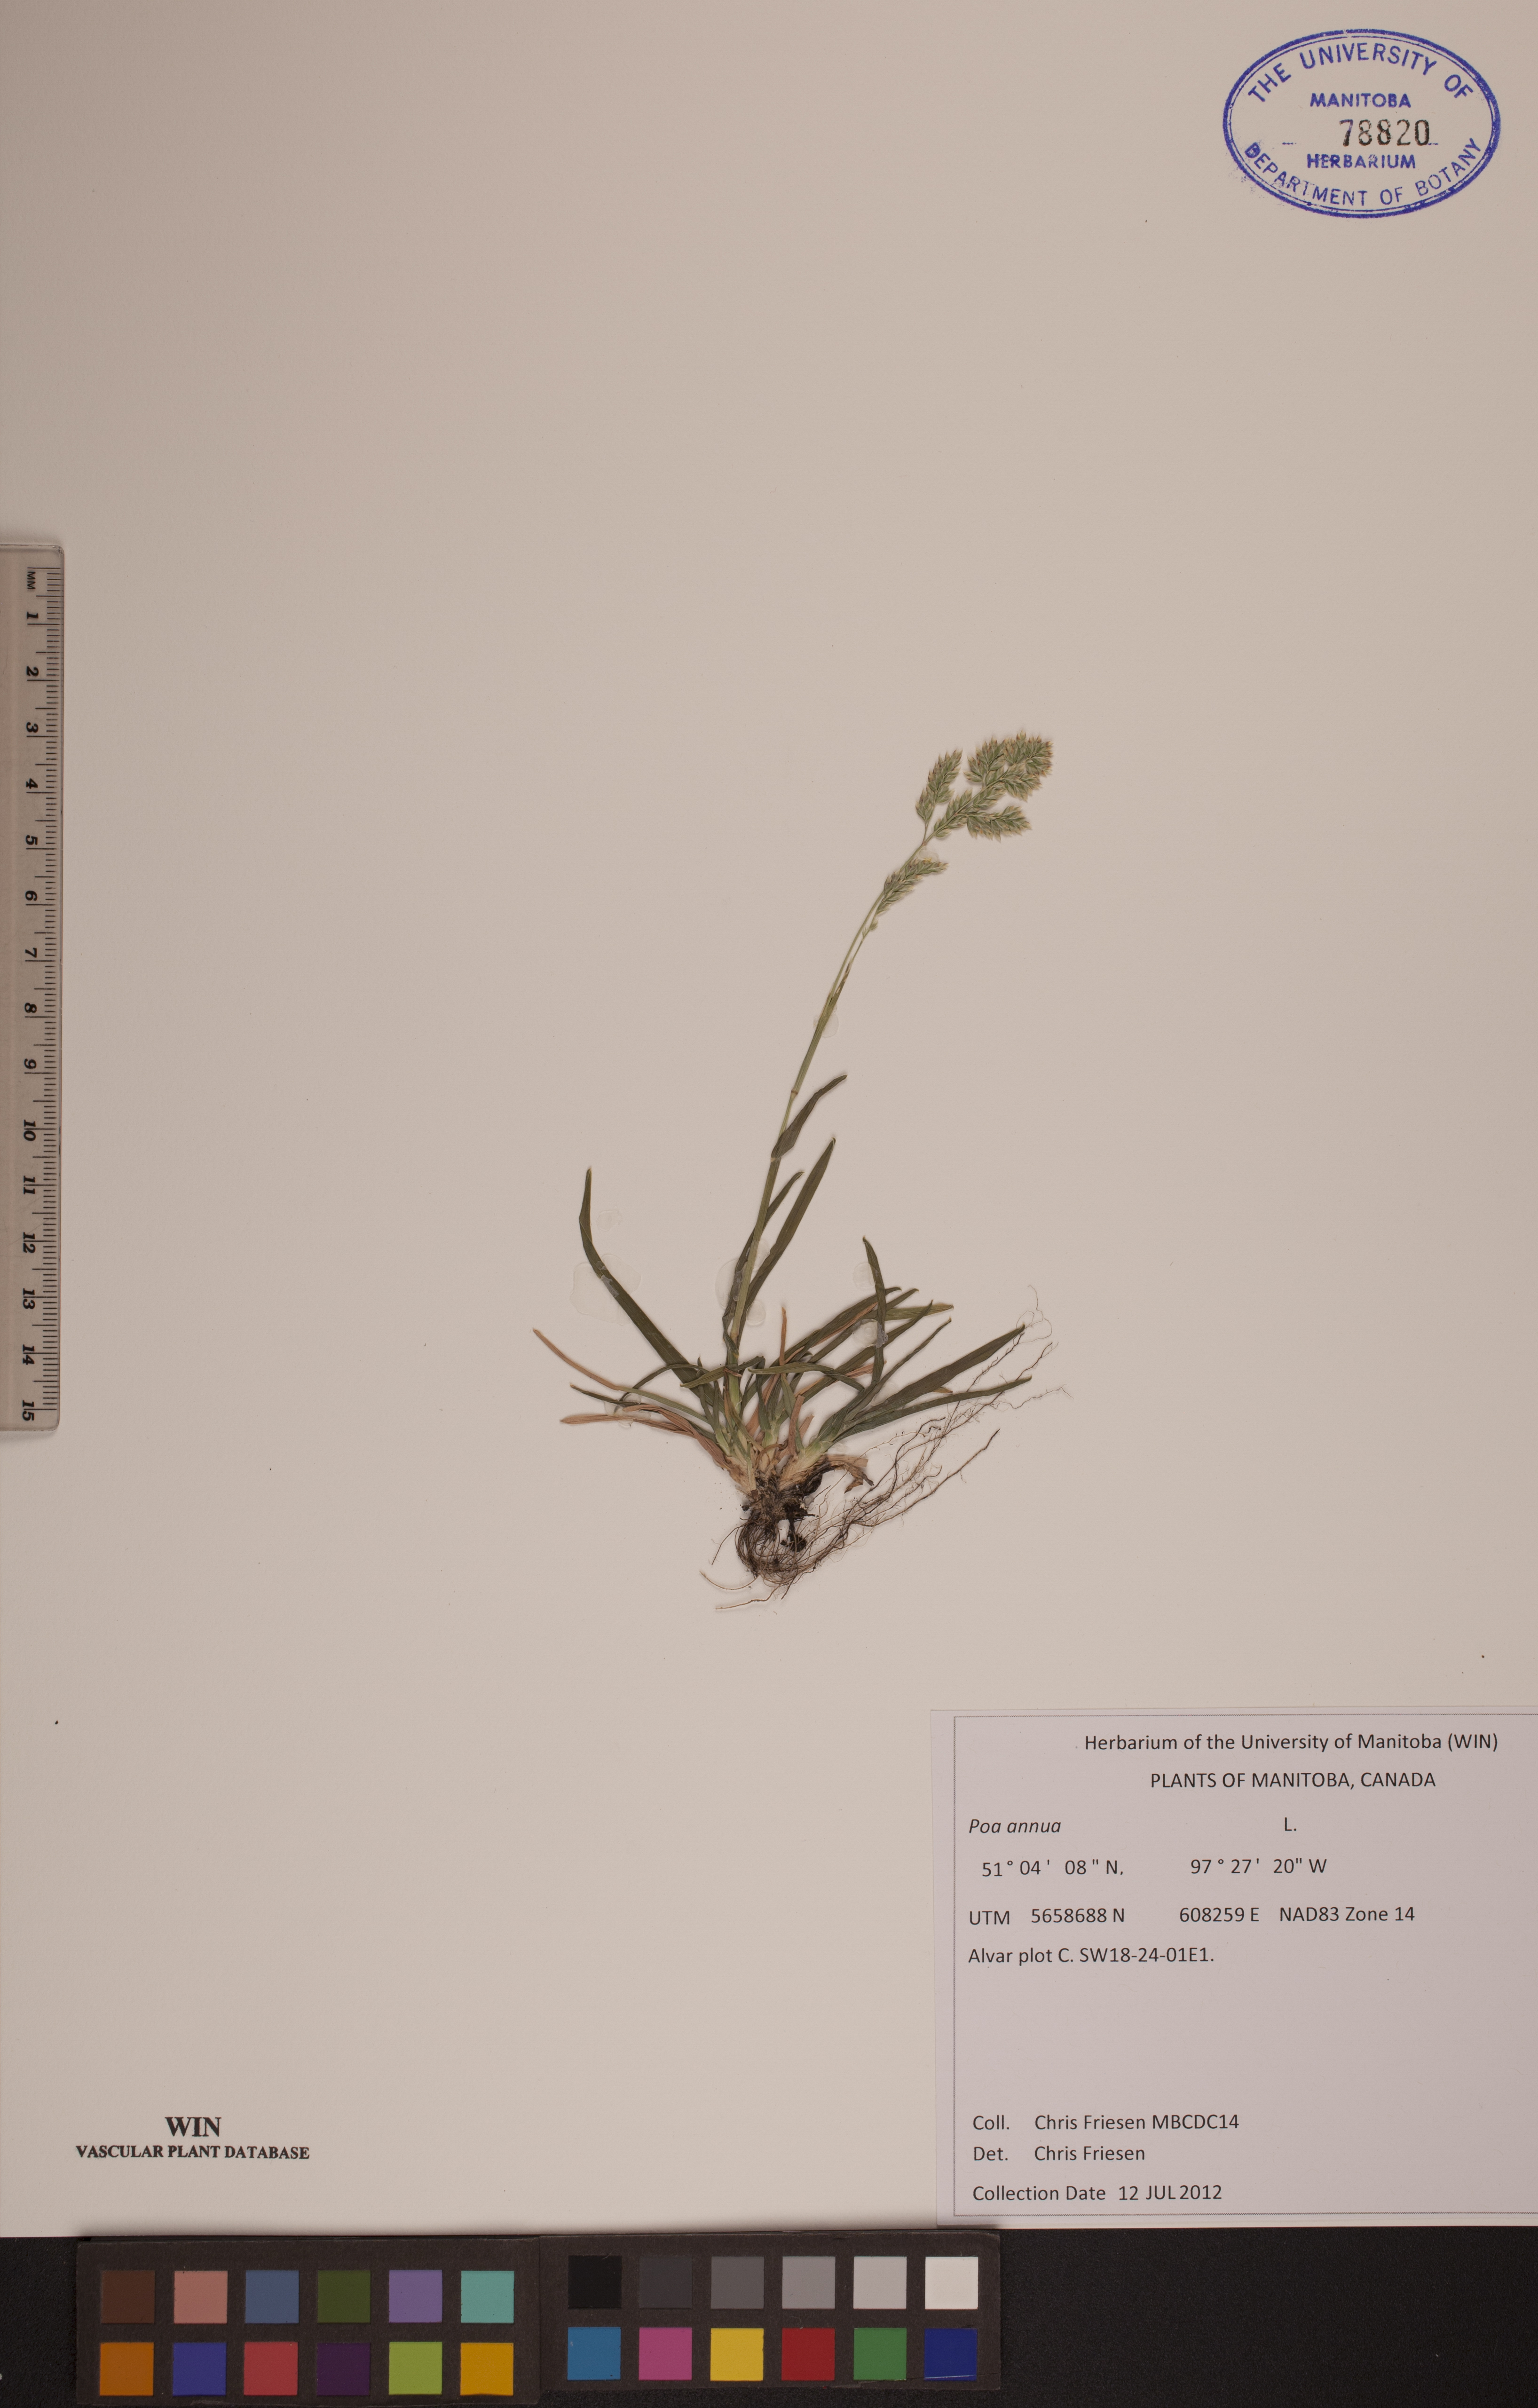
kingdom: Plantae
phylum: Tracheophyta
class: Liliopsida
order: Poales
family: Poaceae
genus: Poa
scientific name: Poa annua
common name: Annual bluegrass
